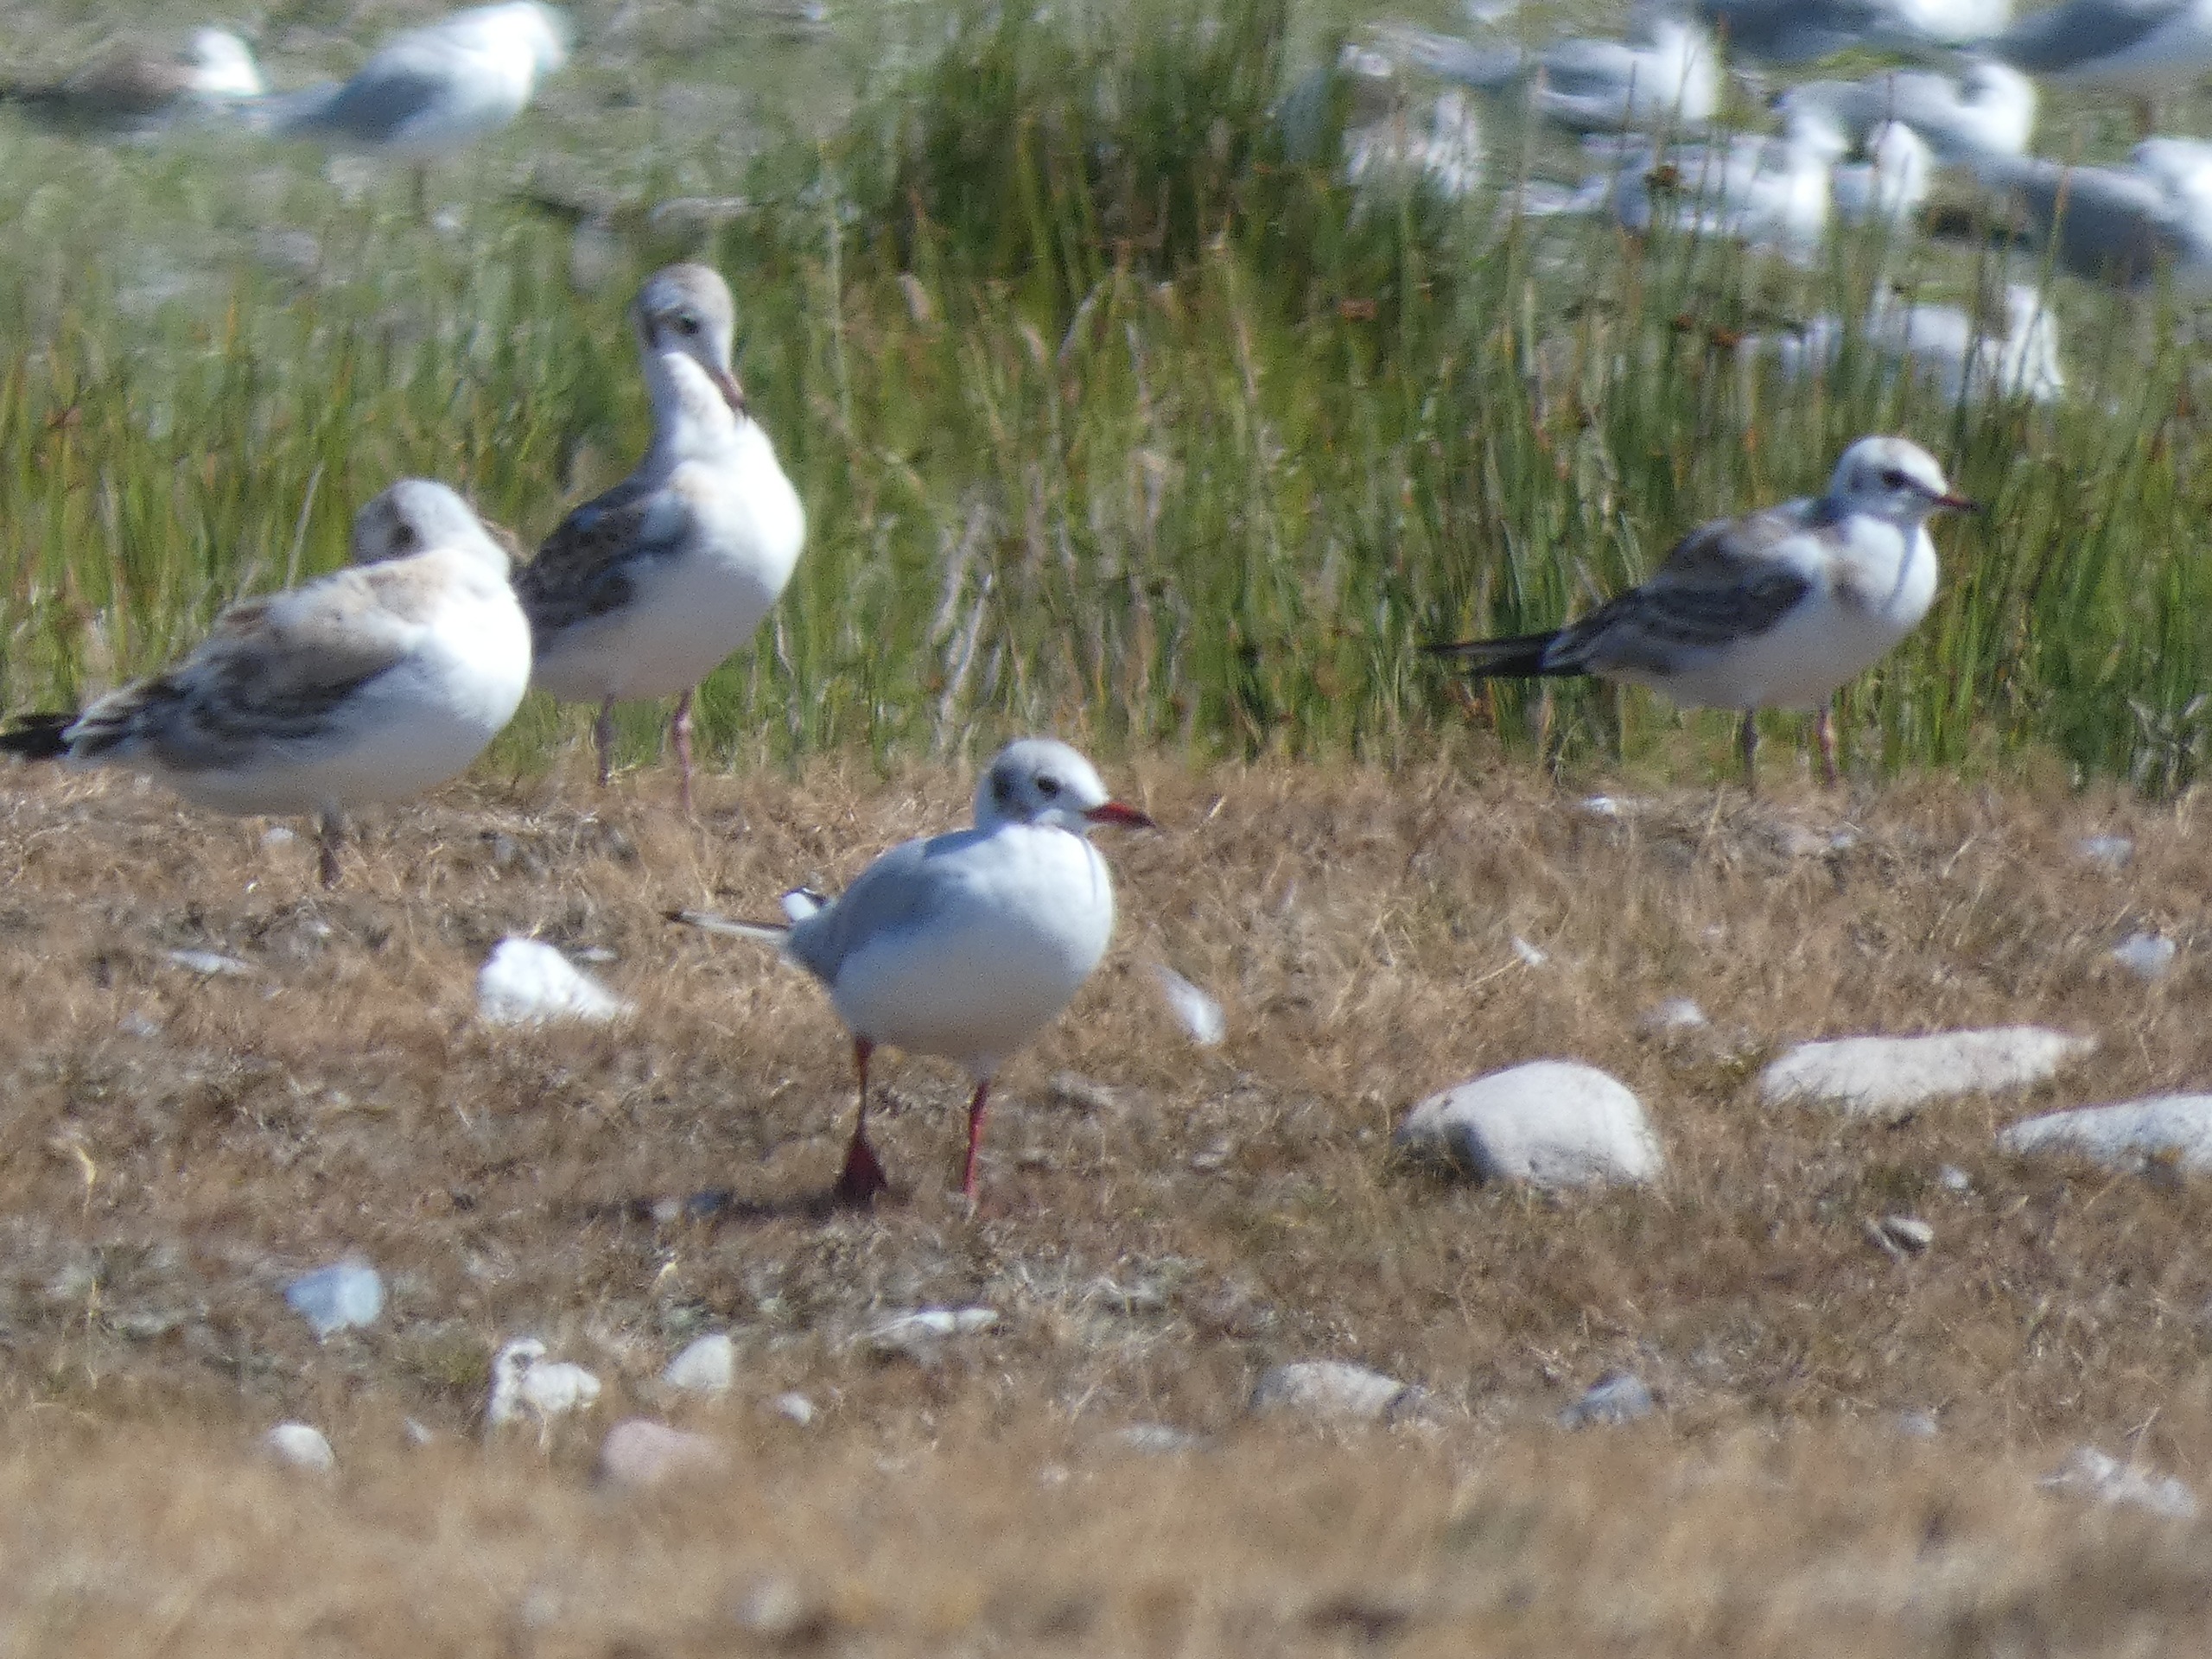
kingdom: Animalia
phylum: Chordata
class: Aves
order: Charadriiformes
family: Laridae
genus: Chroicocephalus
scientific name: Chroicocephalus ridibundus
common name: Hættemåge
